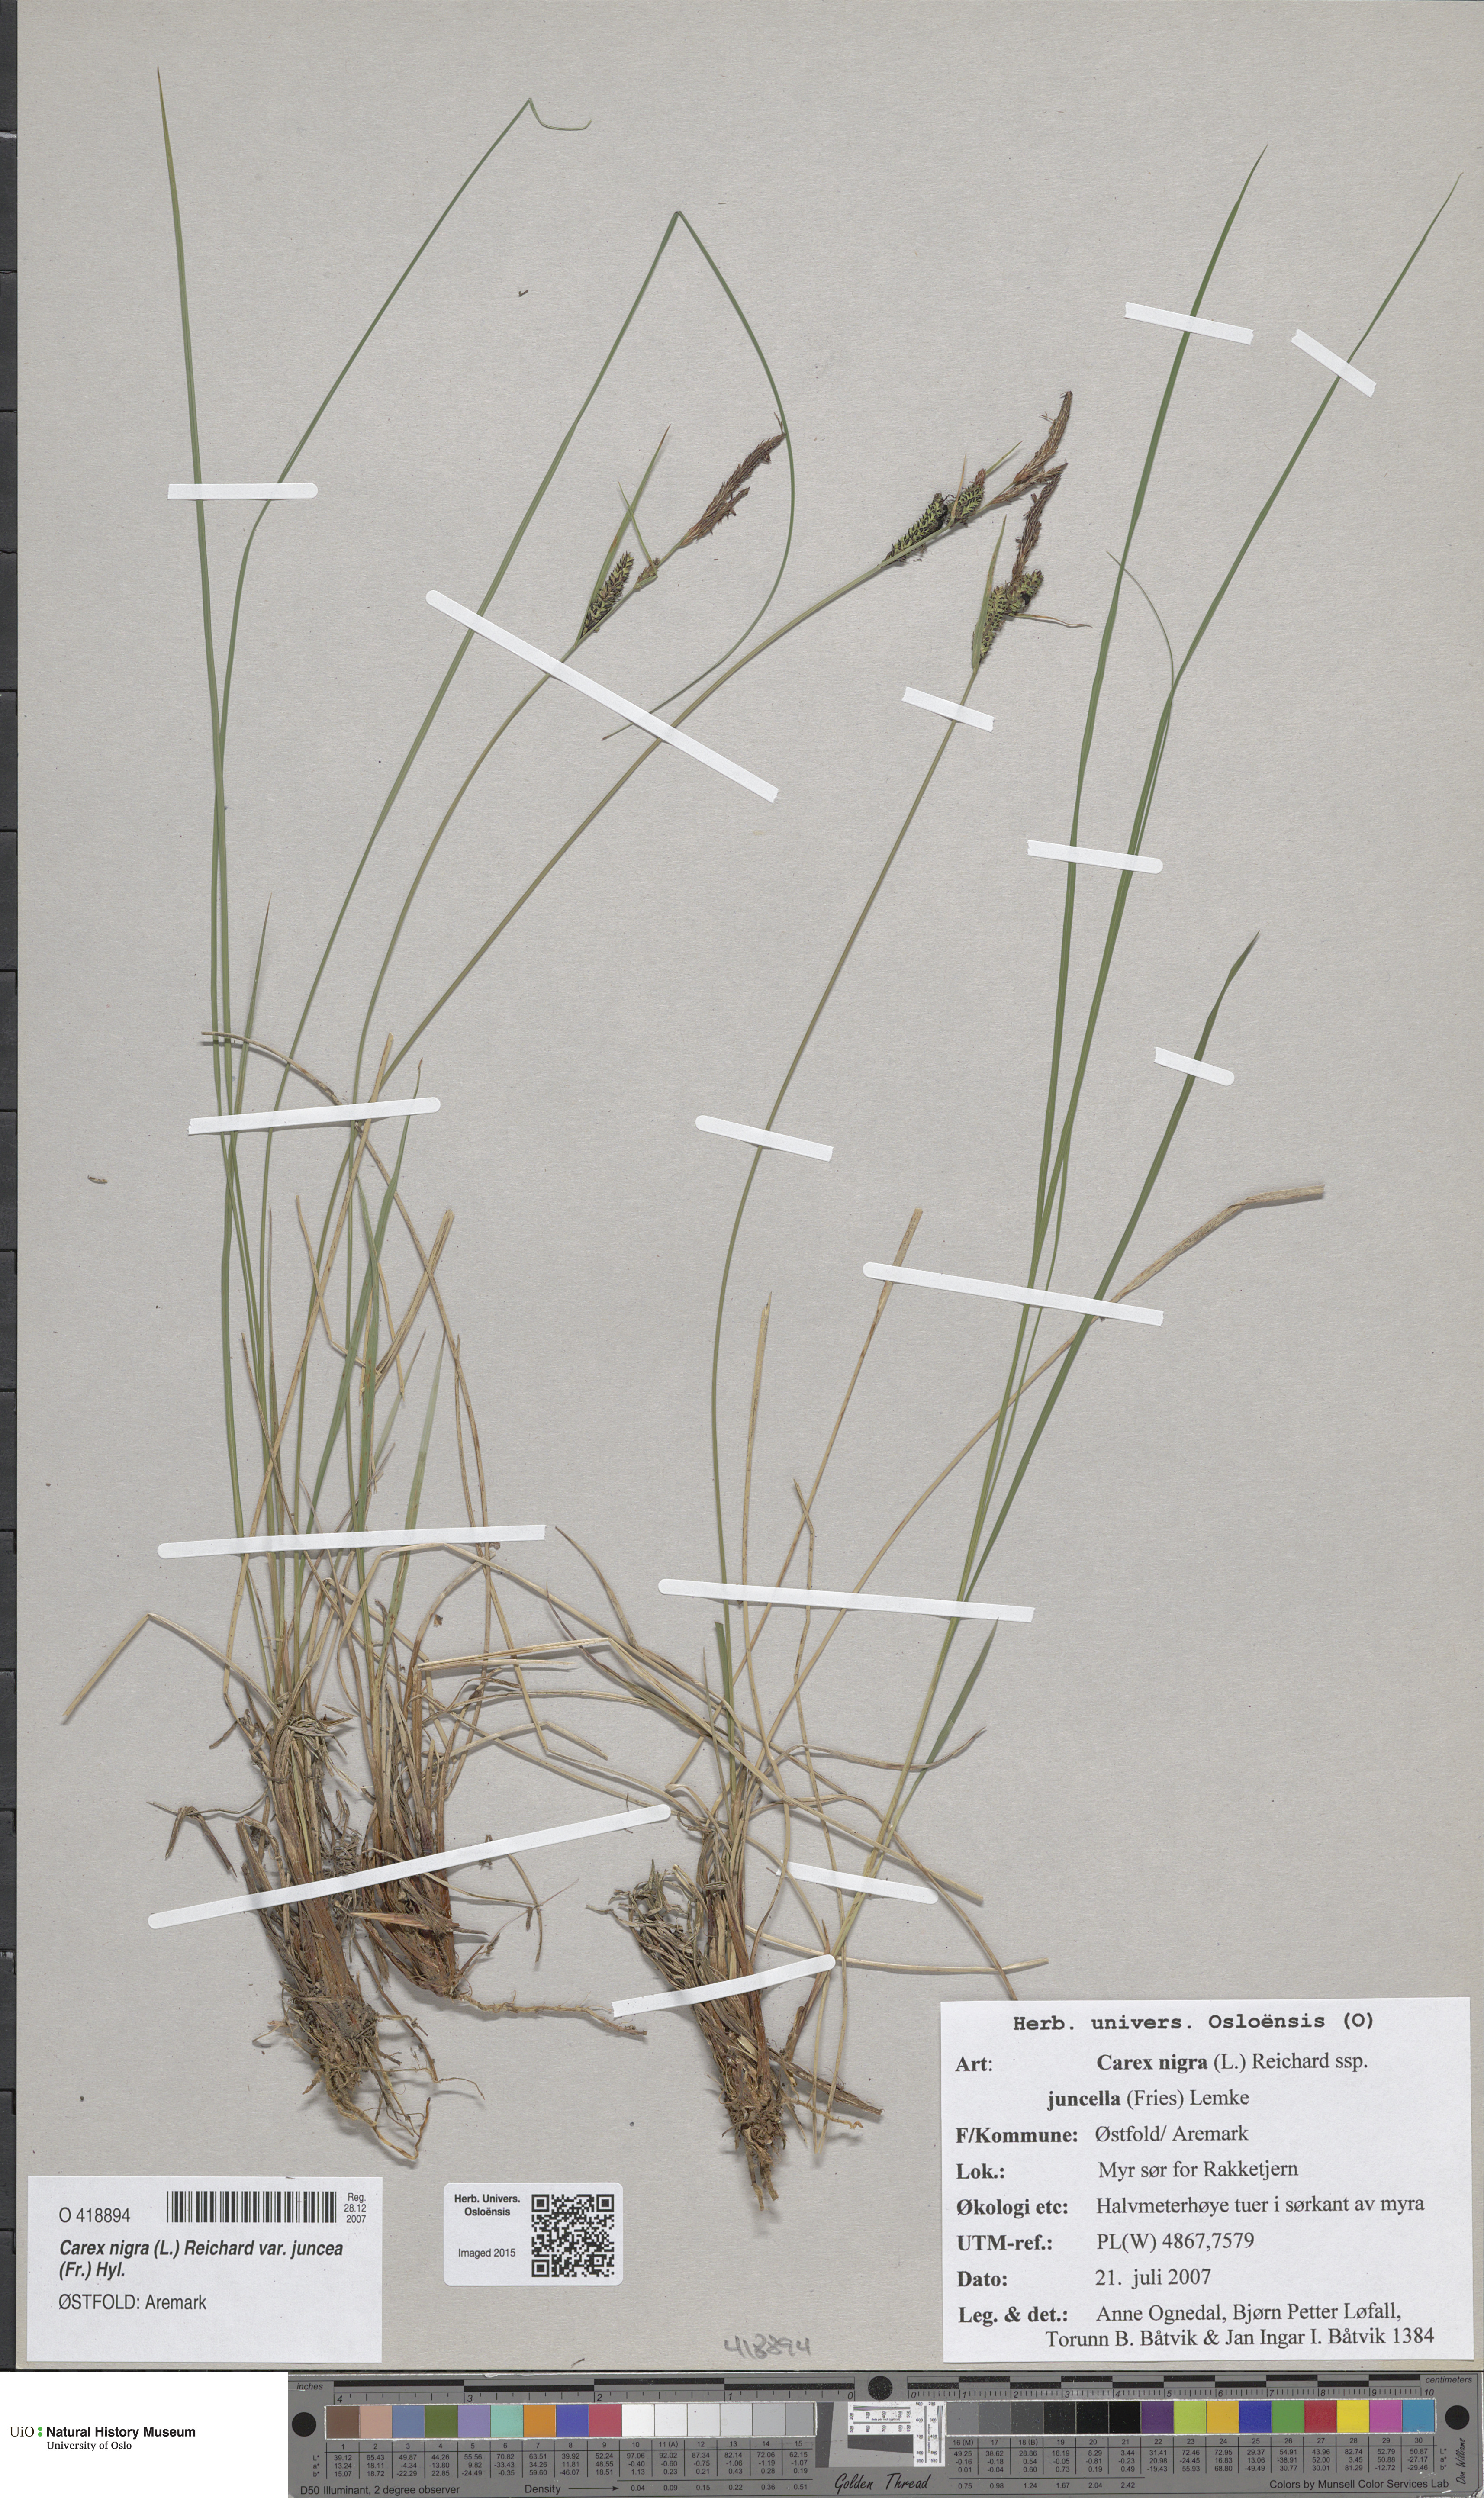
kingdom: Plantae
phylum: Tracheophyta
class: Liliopsida
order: Poales
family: Cyperaceae
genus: Carex
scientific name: Carex nigra
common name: Common sedge
